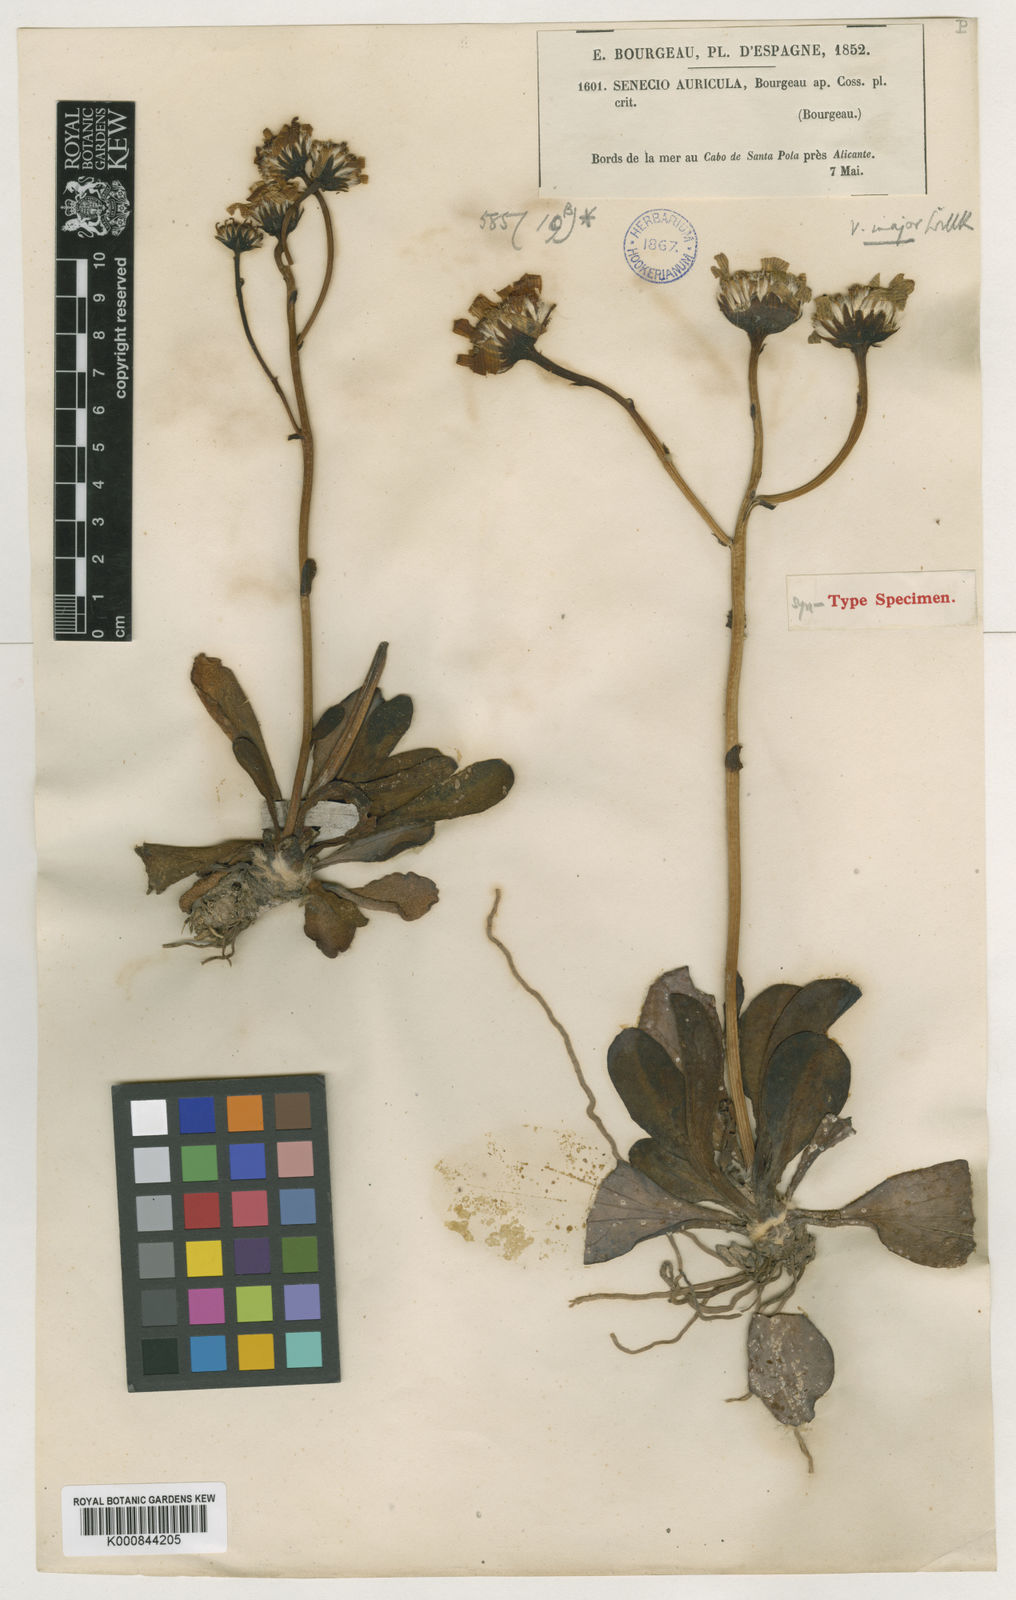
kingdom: Plantae
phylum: Tracheophyta
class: Magnoliopsida
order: Asterales
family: Asteraceae
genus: Senecio
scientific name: Senecio auricula
